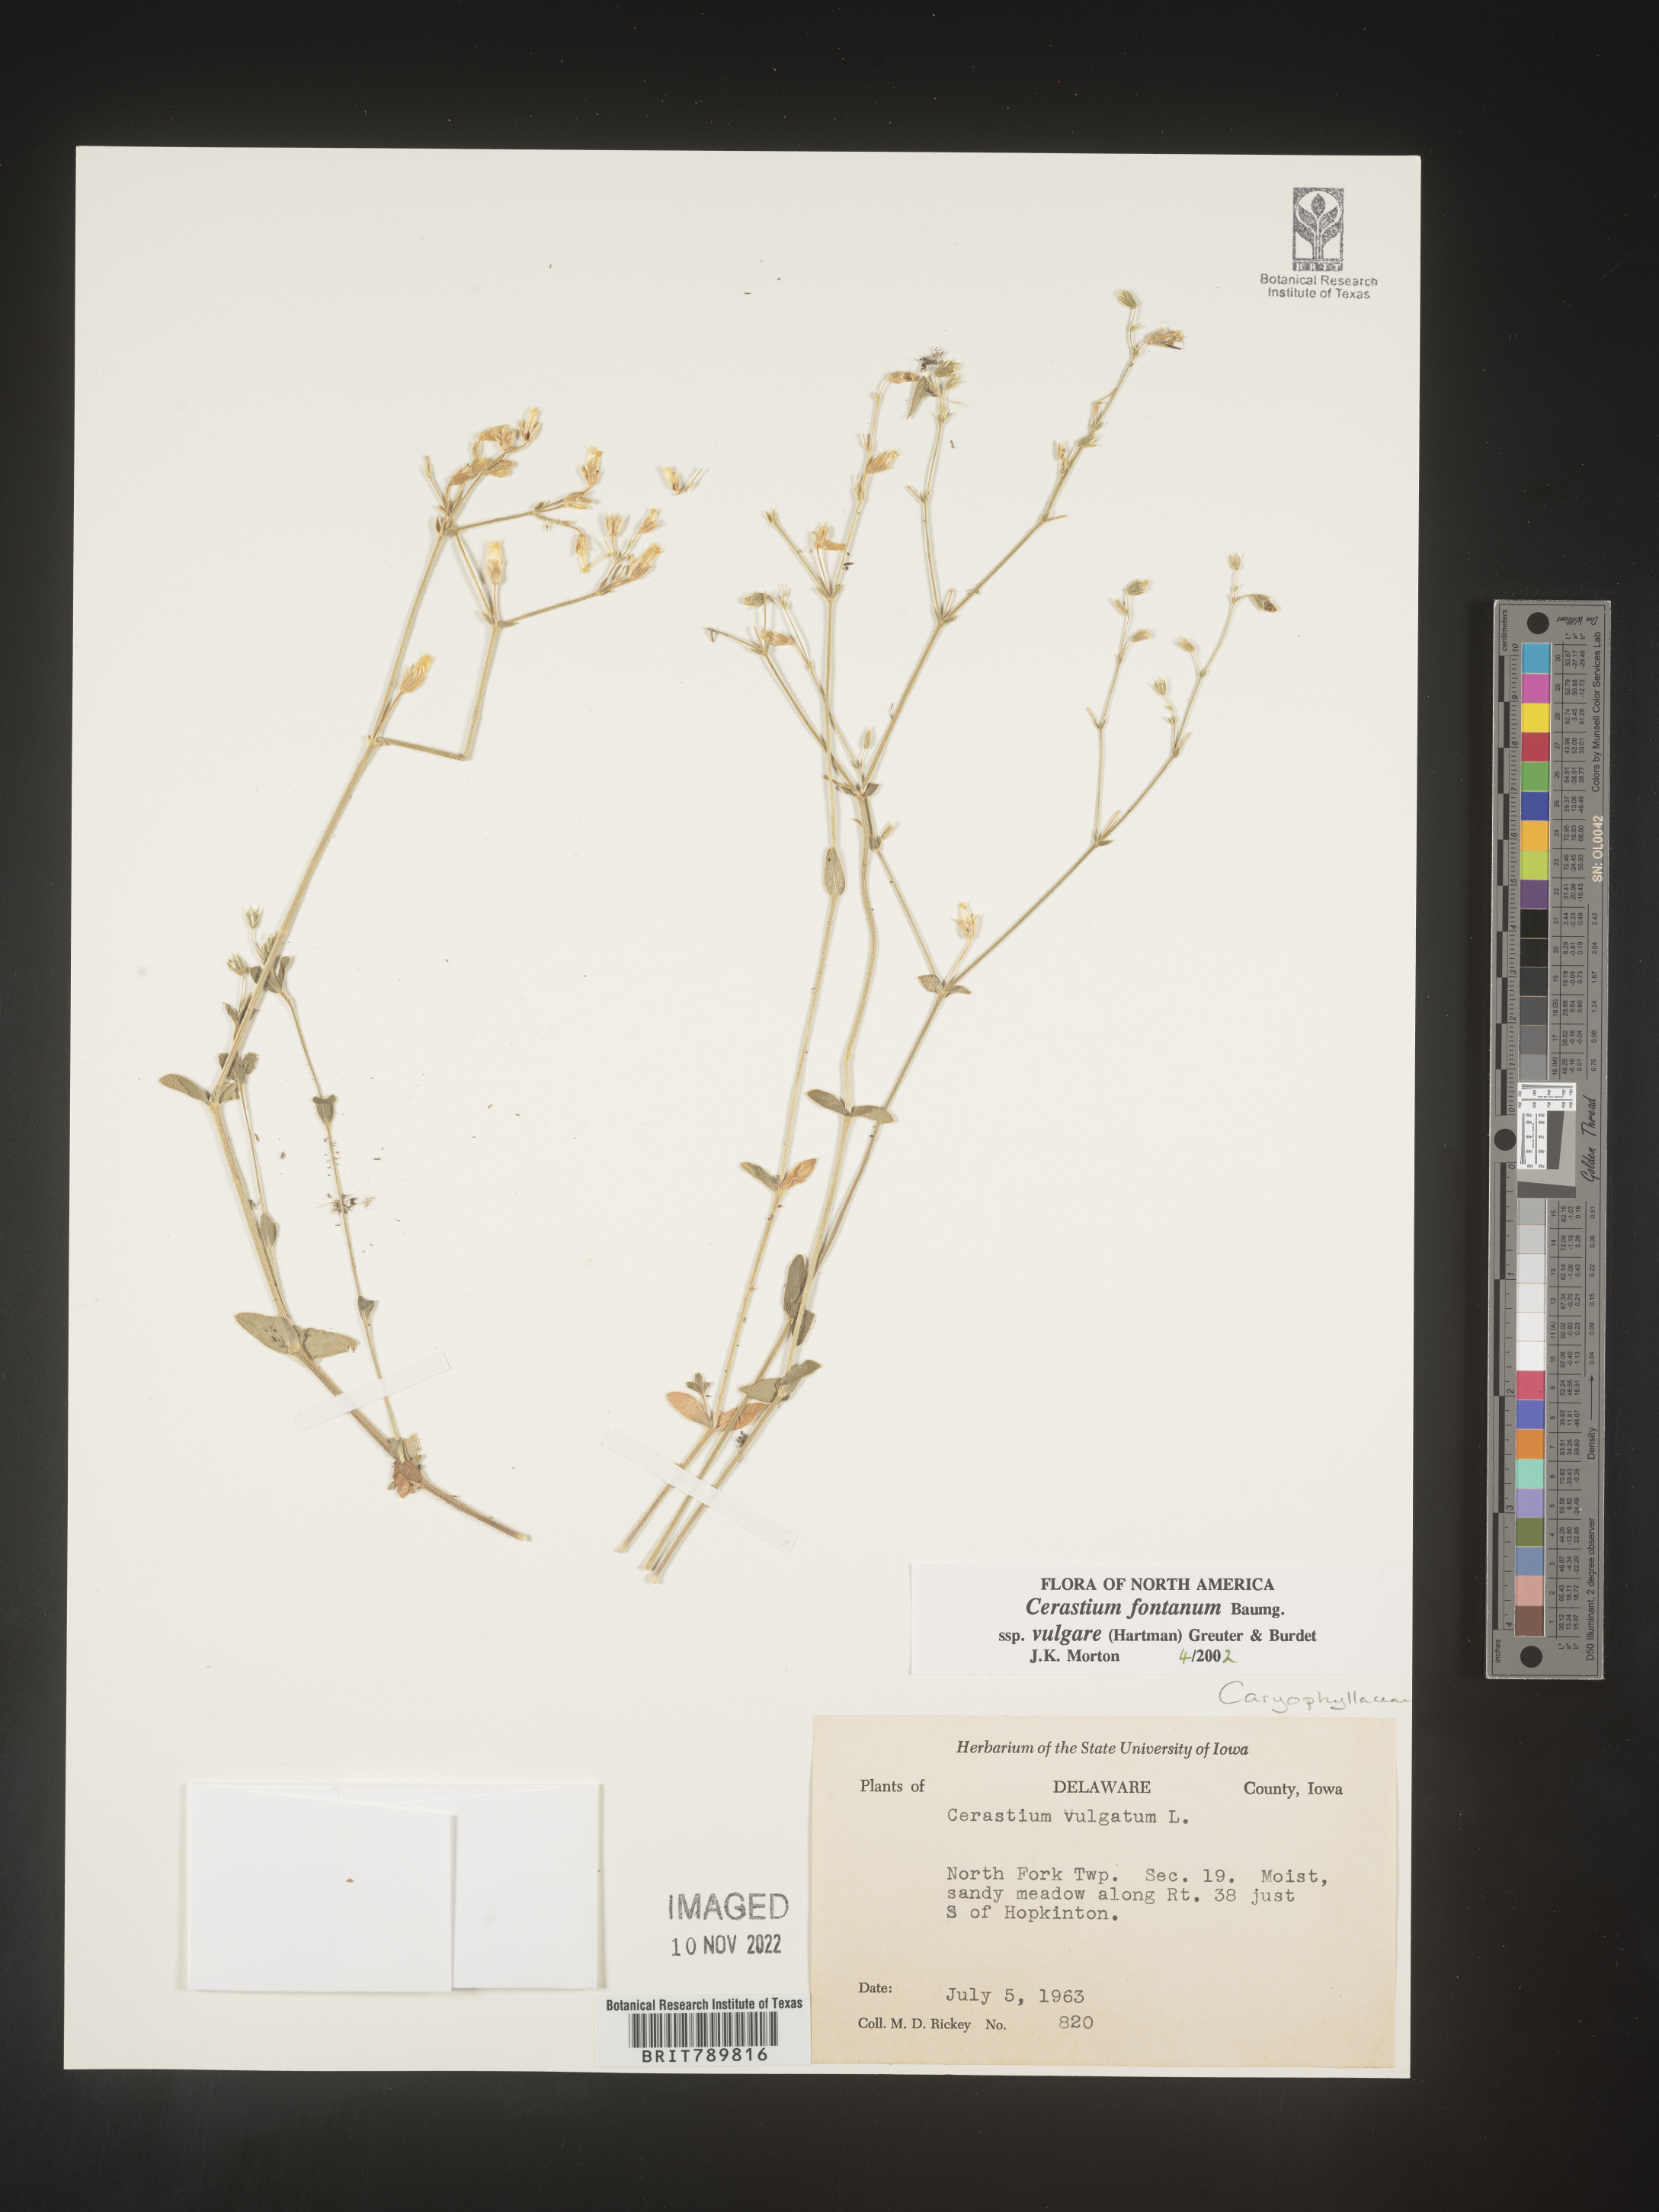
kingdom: Plantae
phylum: Tracheophyta
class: Magnoliopsida
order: Caryophyllales
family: Caryophyllaceae
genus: Cerastium
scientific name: Cerastium fontanum
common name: Common mouse-ear
